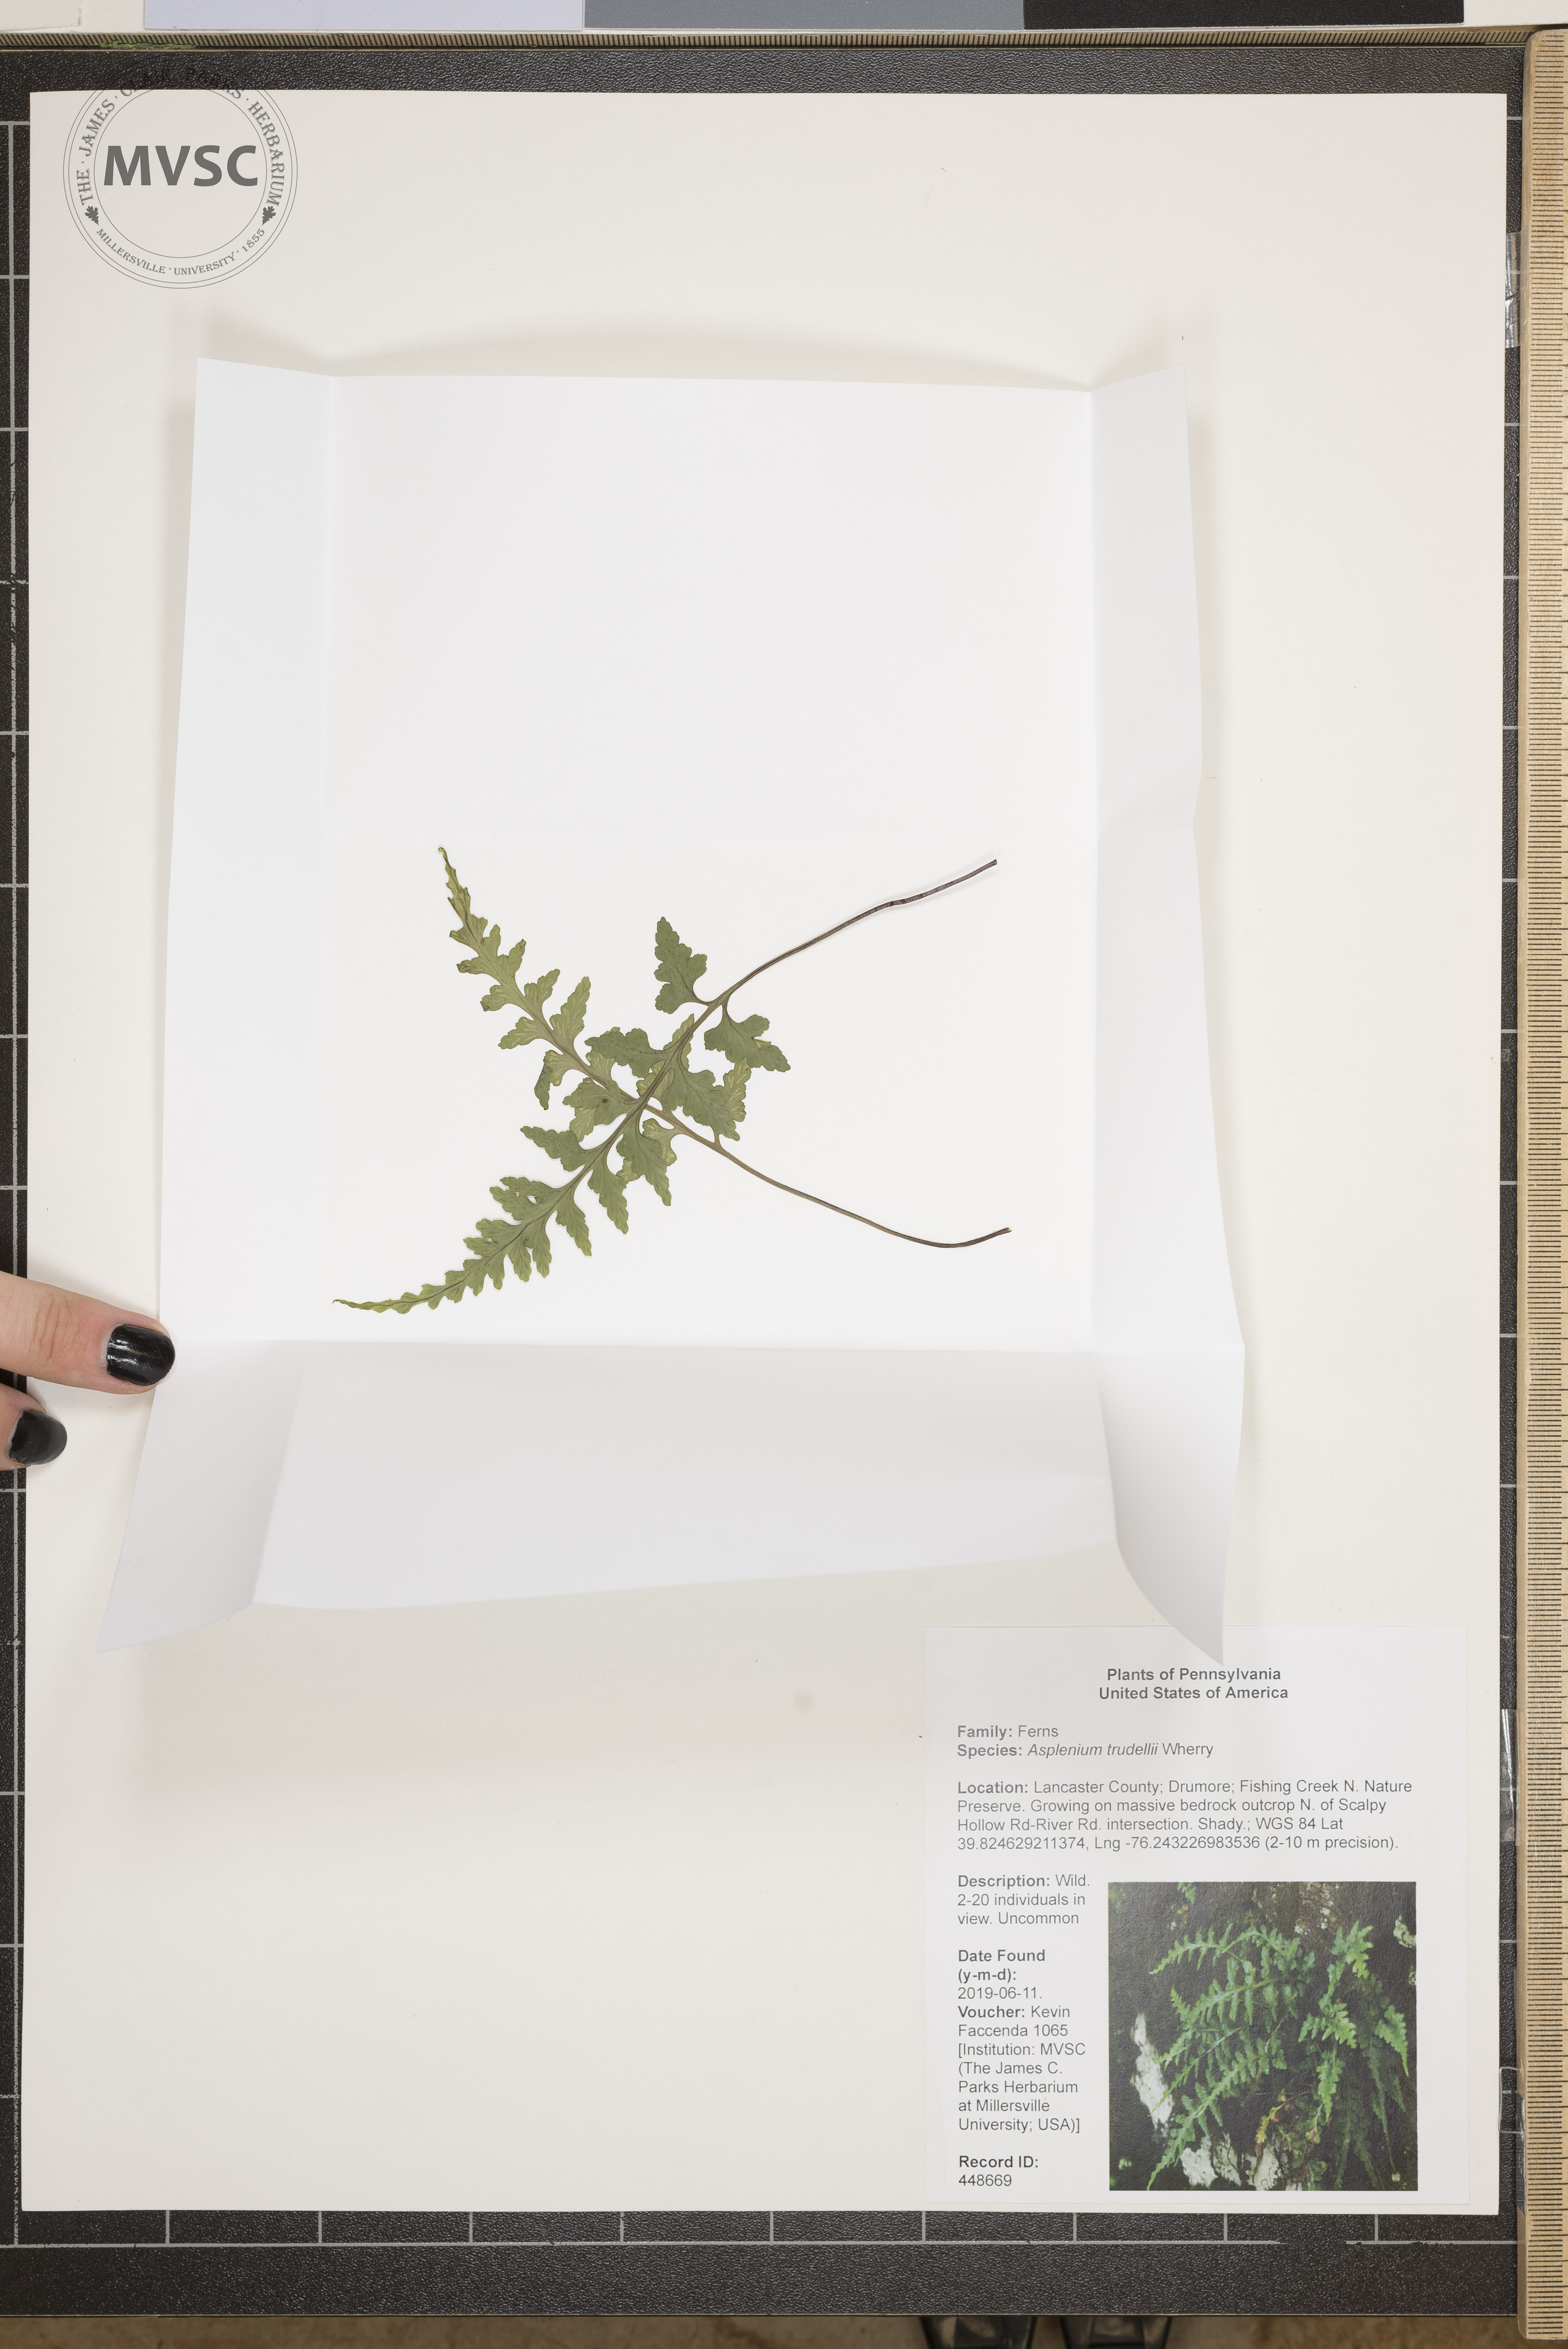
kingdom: Plantae
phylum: Tracheophyta
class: Polypodiopsida
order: Polypodiales
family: Aspleniaceae
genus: Asplenium
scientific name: Asplenium trudellii
